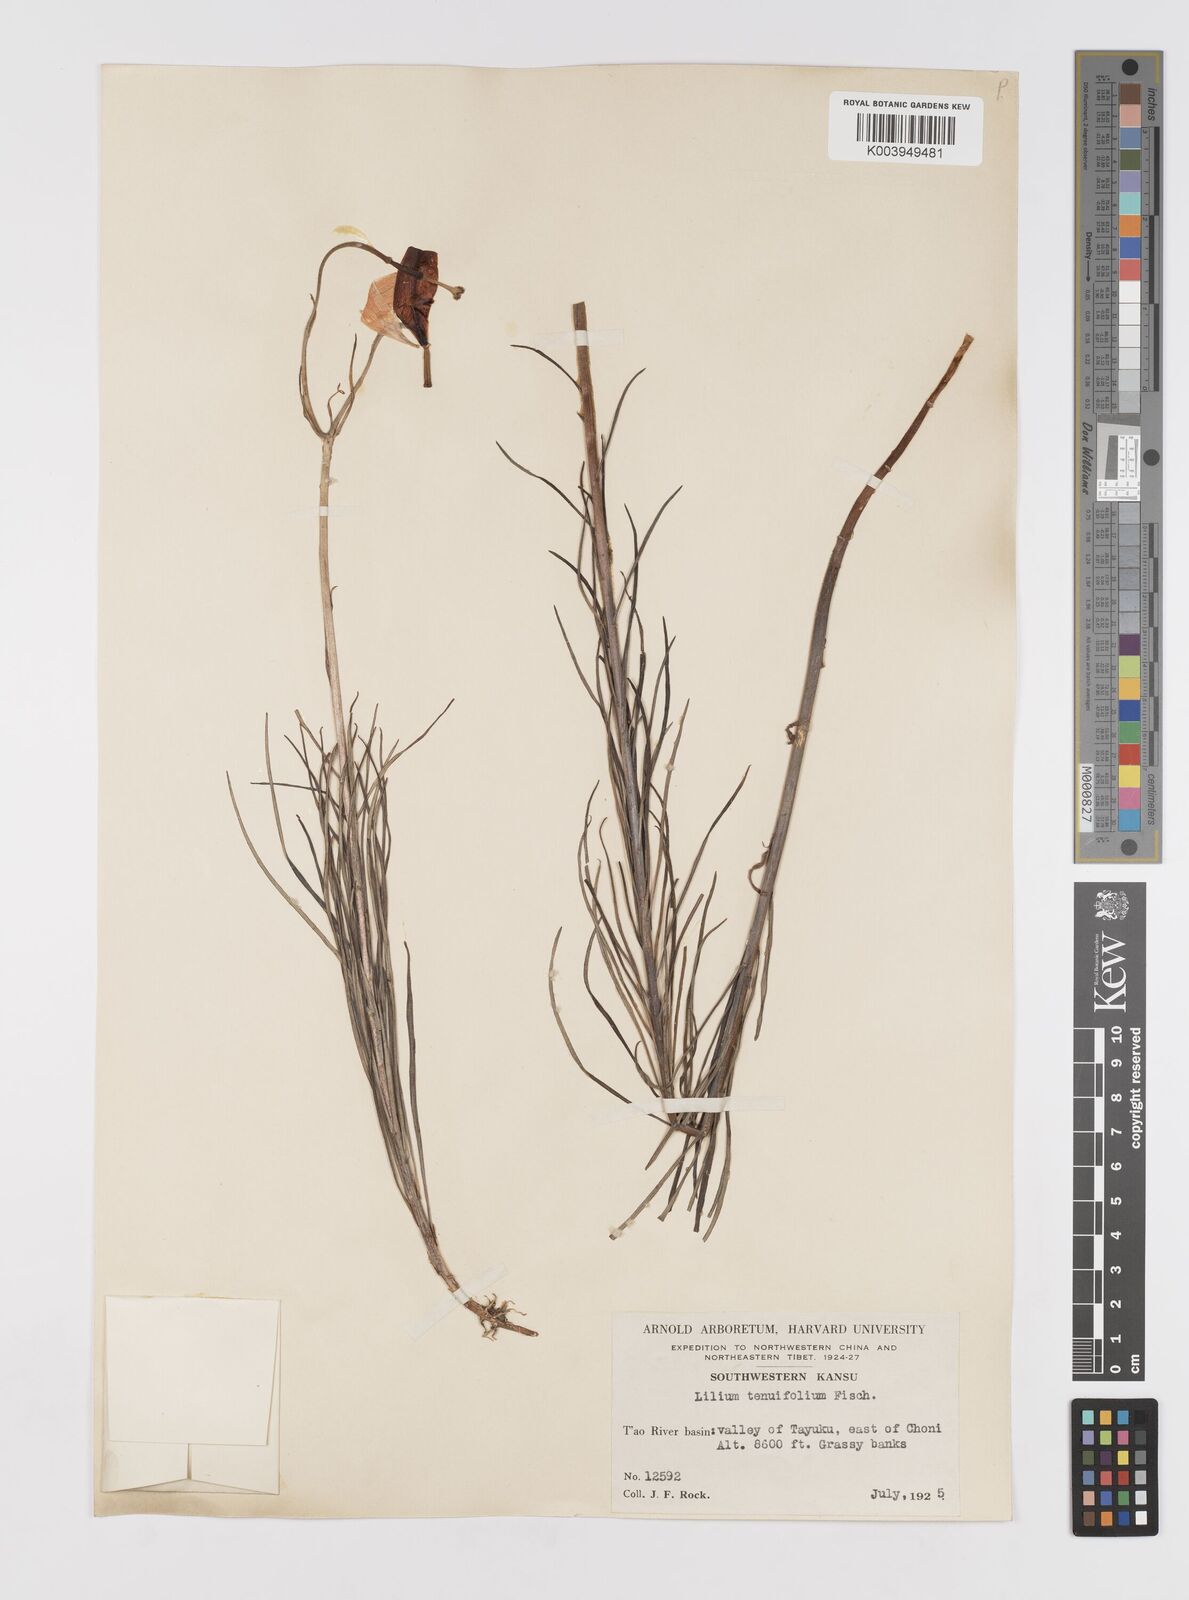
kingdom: Plantae
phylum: Tracheophyta
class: Liliopsida
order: Liliales
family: Liliaceae
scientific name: Liliaceae
